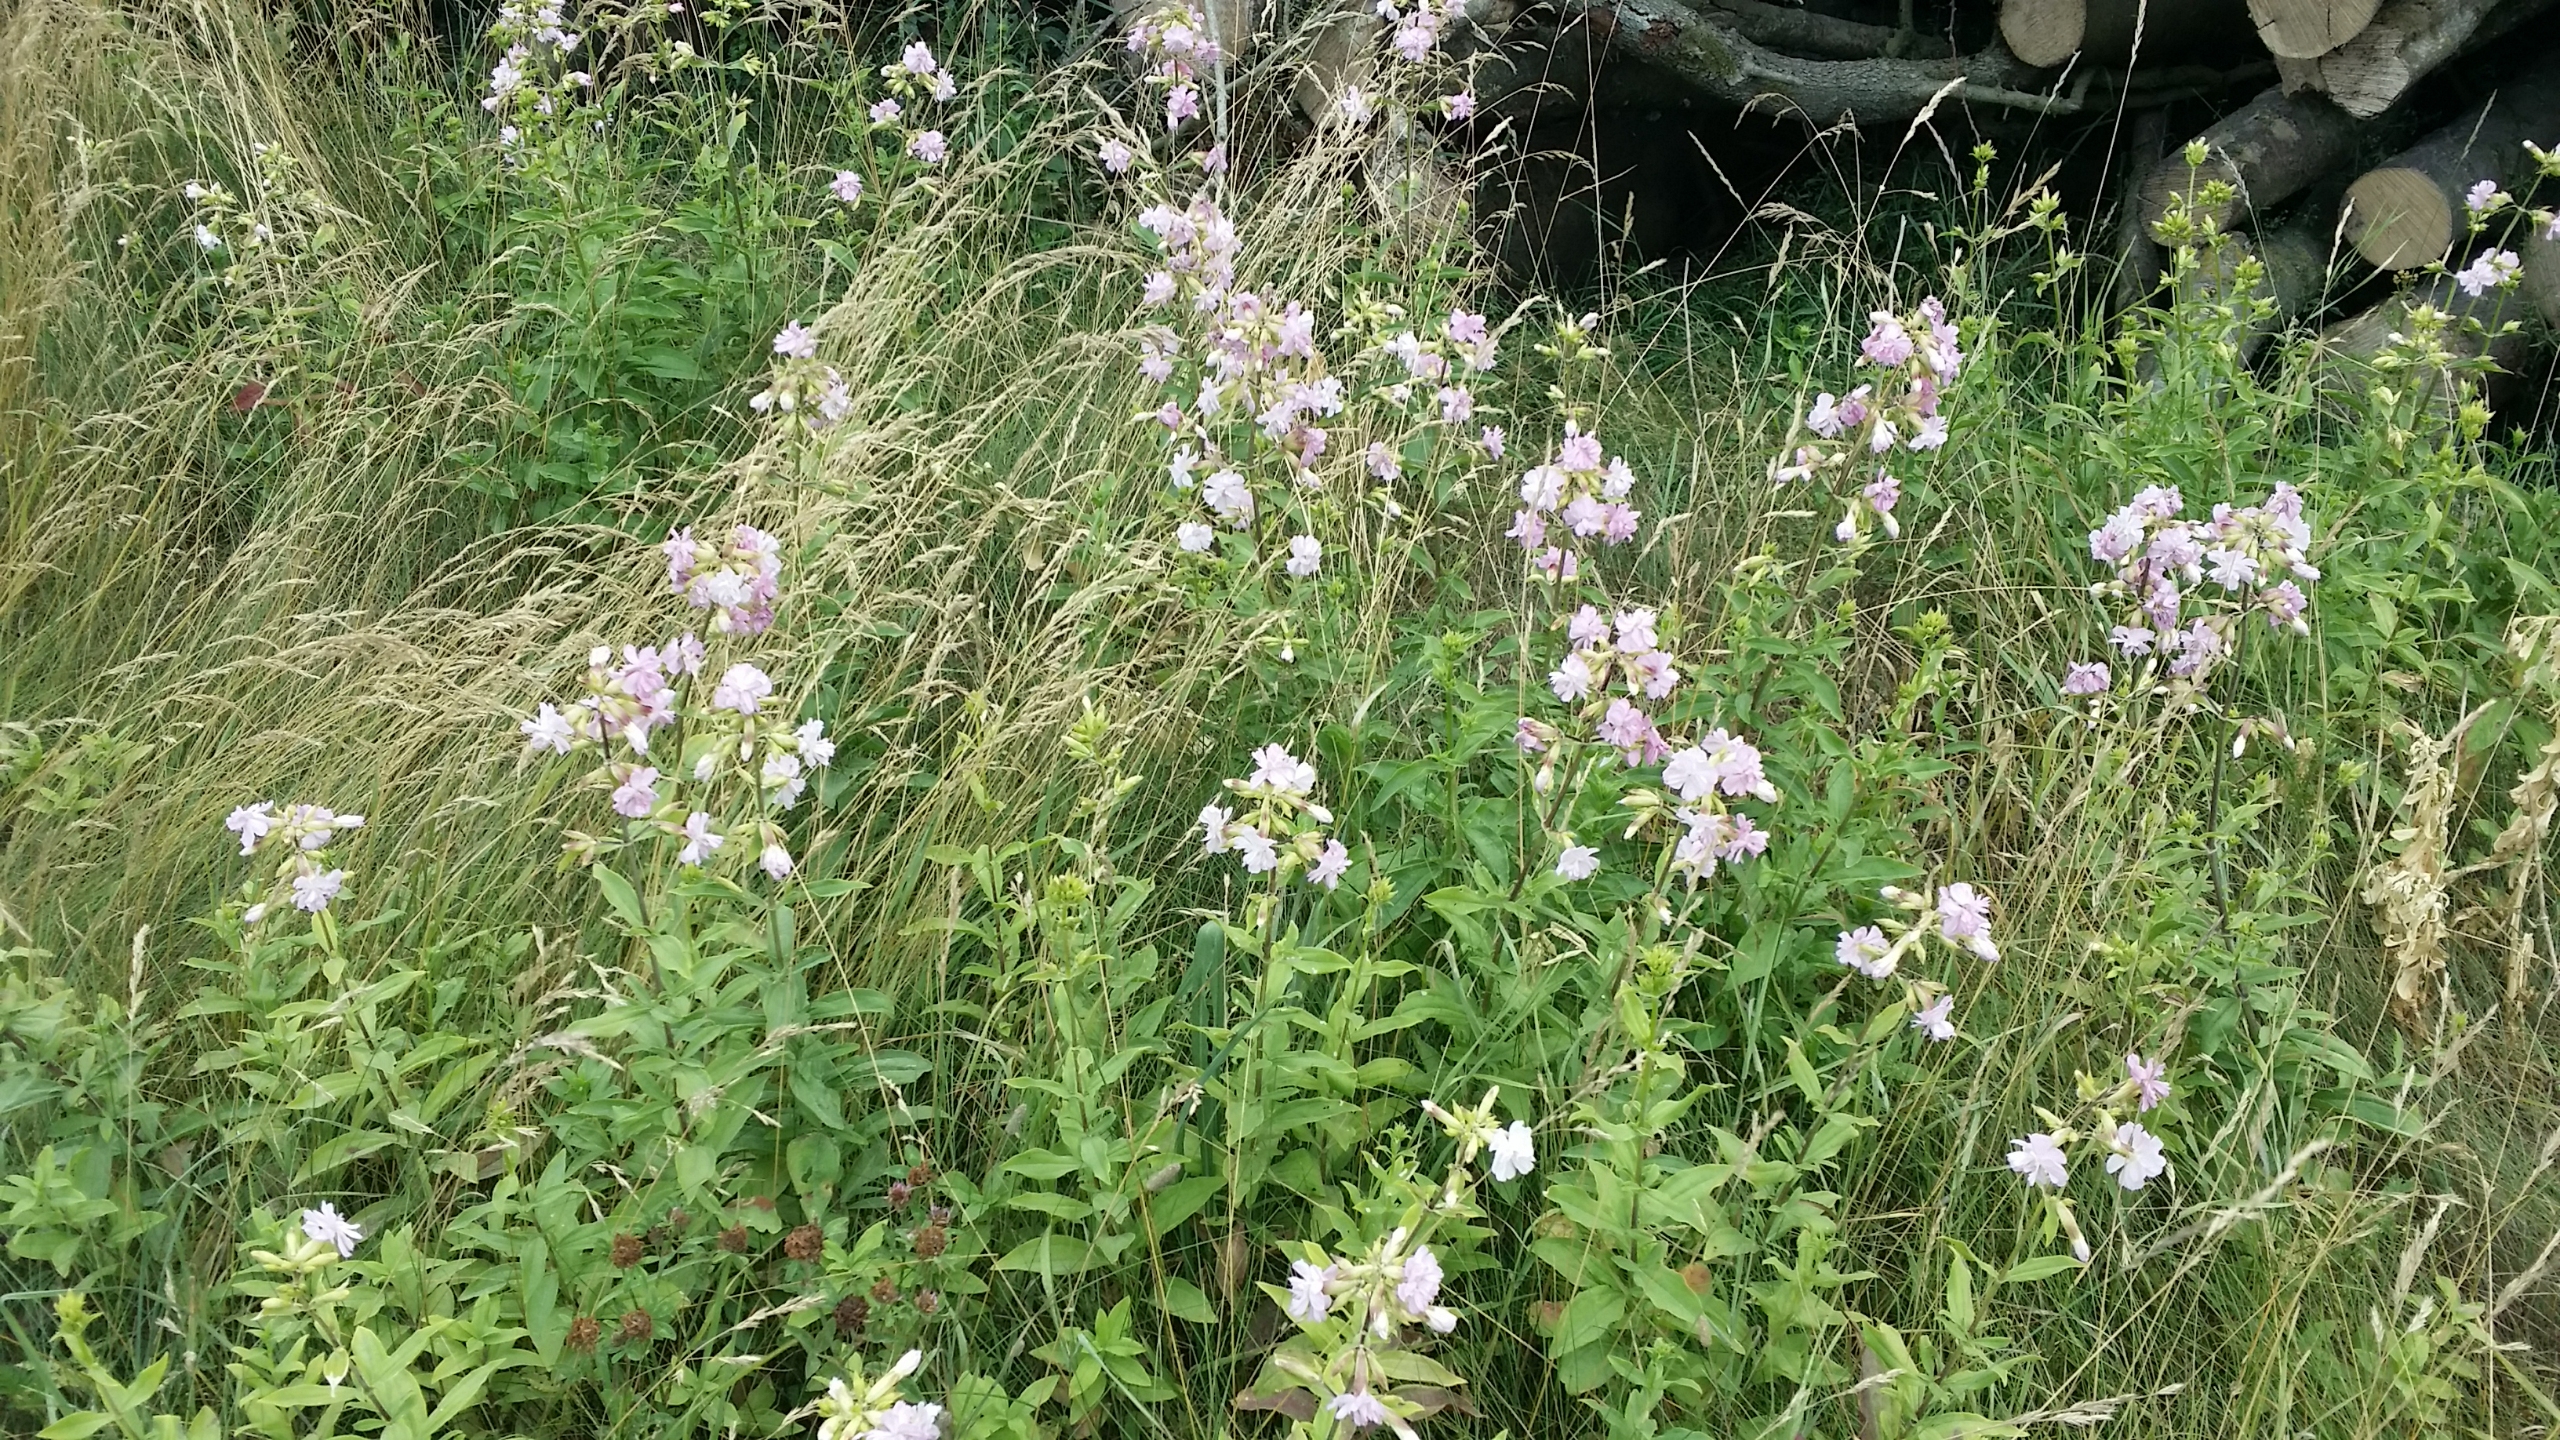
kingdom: Plantae
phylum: Tracheophyta
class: Magnoliopsida
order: Caryophyllales
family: Caryophyllaceae
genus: Saponaria
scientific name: Saponaria officinalis
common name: Sæbeurt
